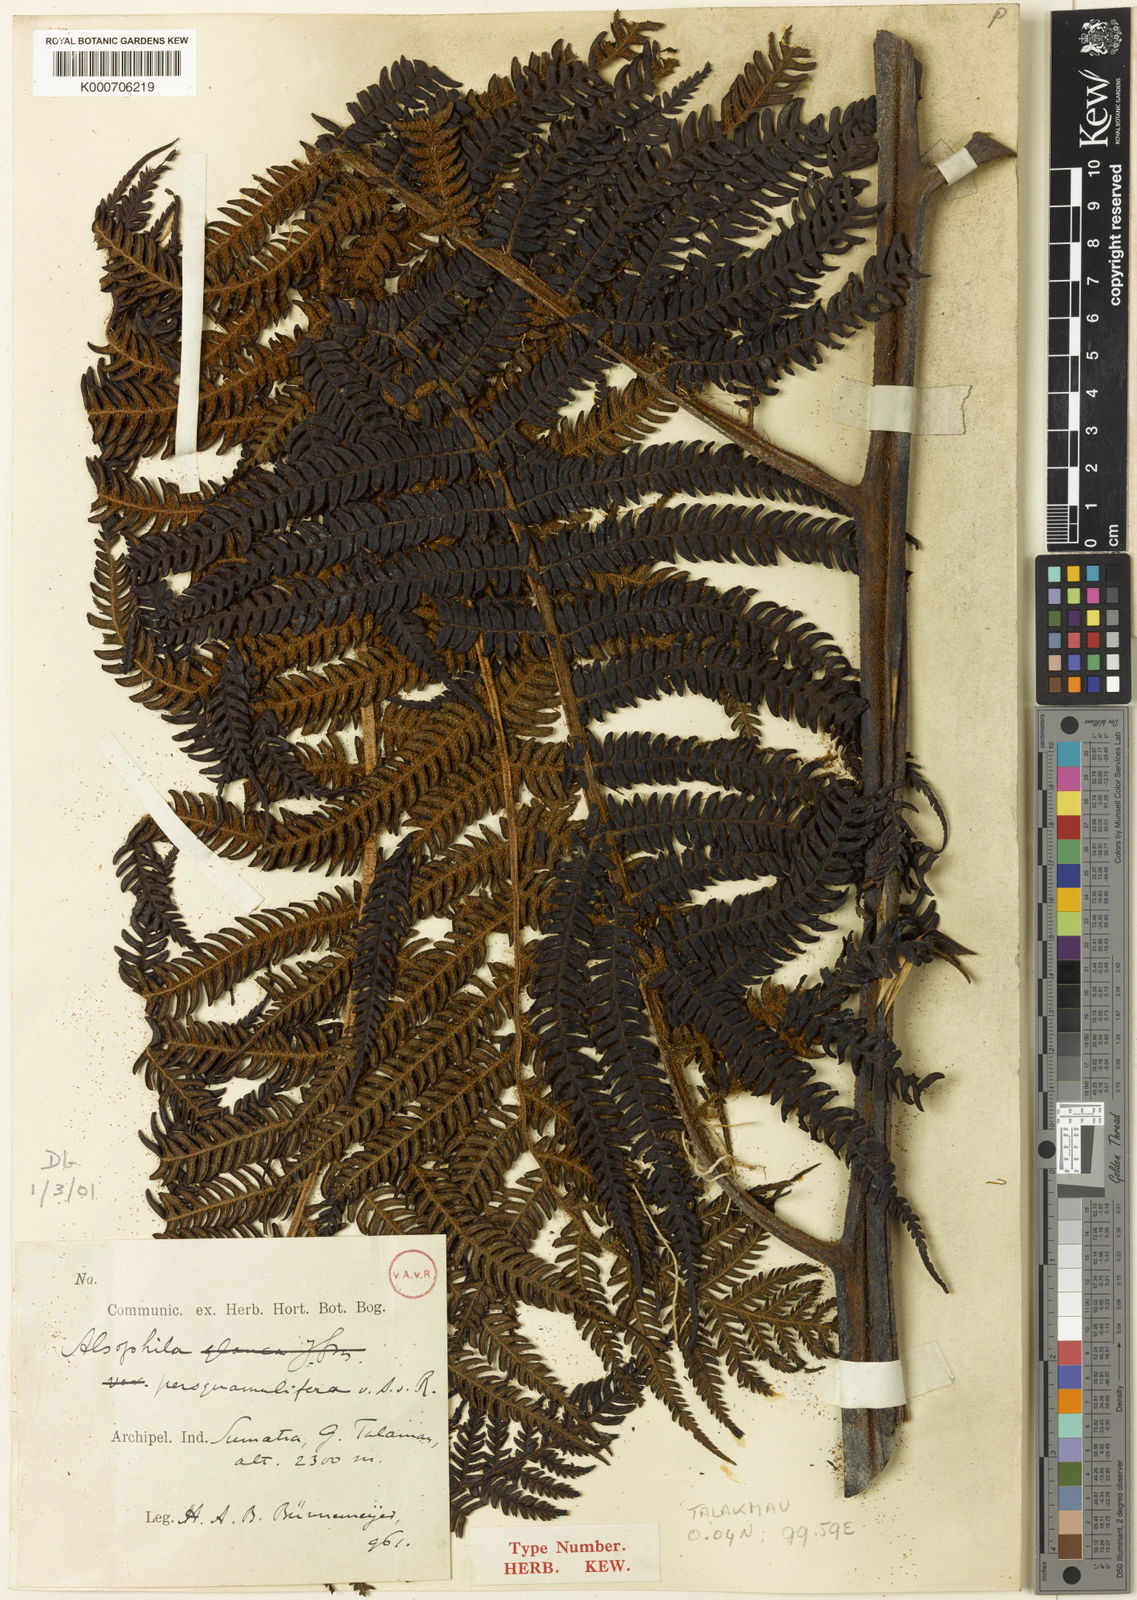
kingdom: Plantae
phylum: Tracheophyta
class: Polypodiopsida
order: Cyatheales
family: Cyatheaceae
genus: Sphaeropteris
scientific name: Sphaeropteris persquamulifera
